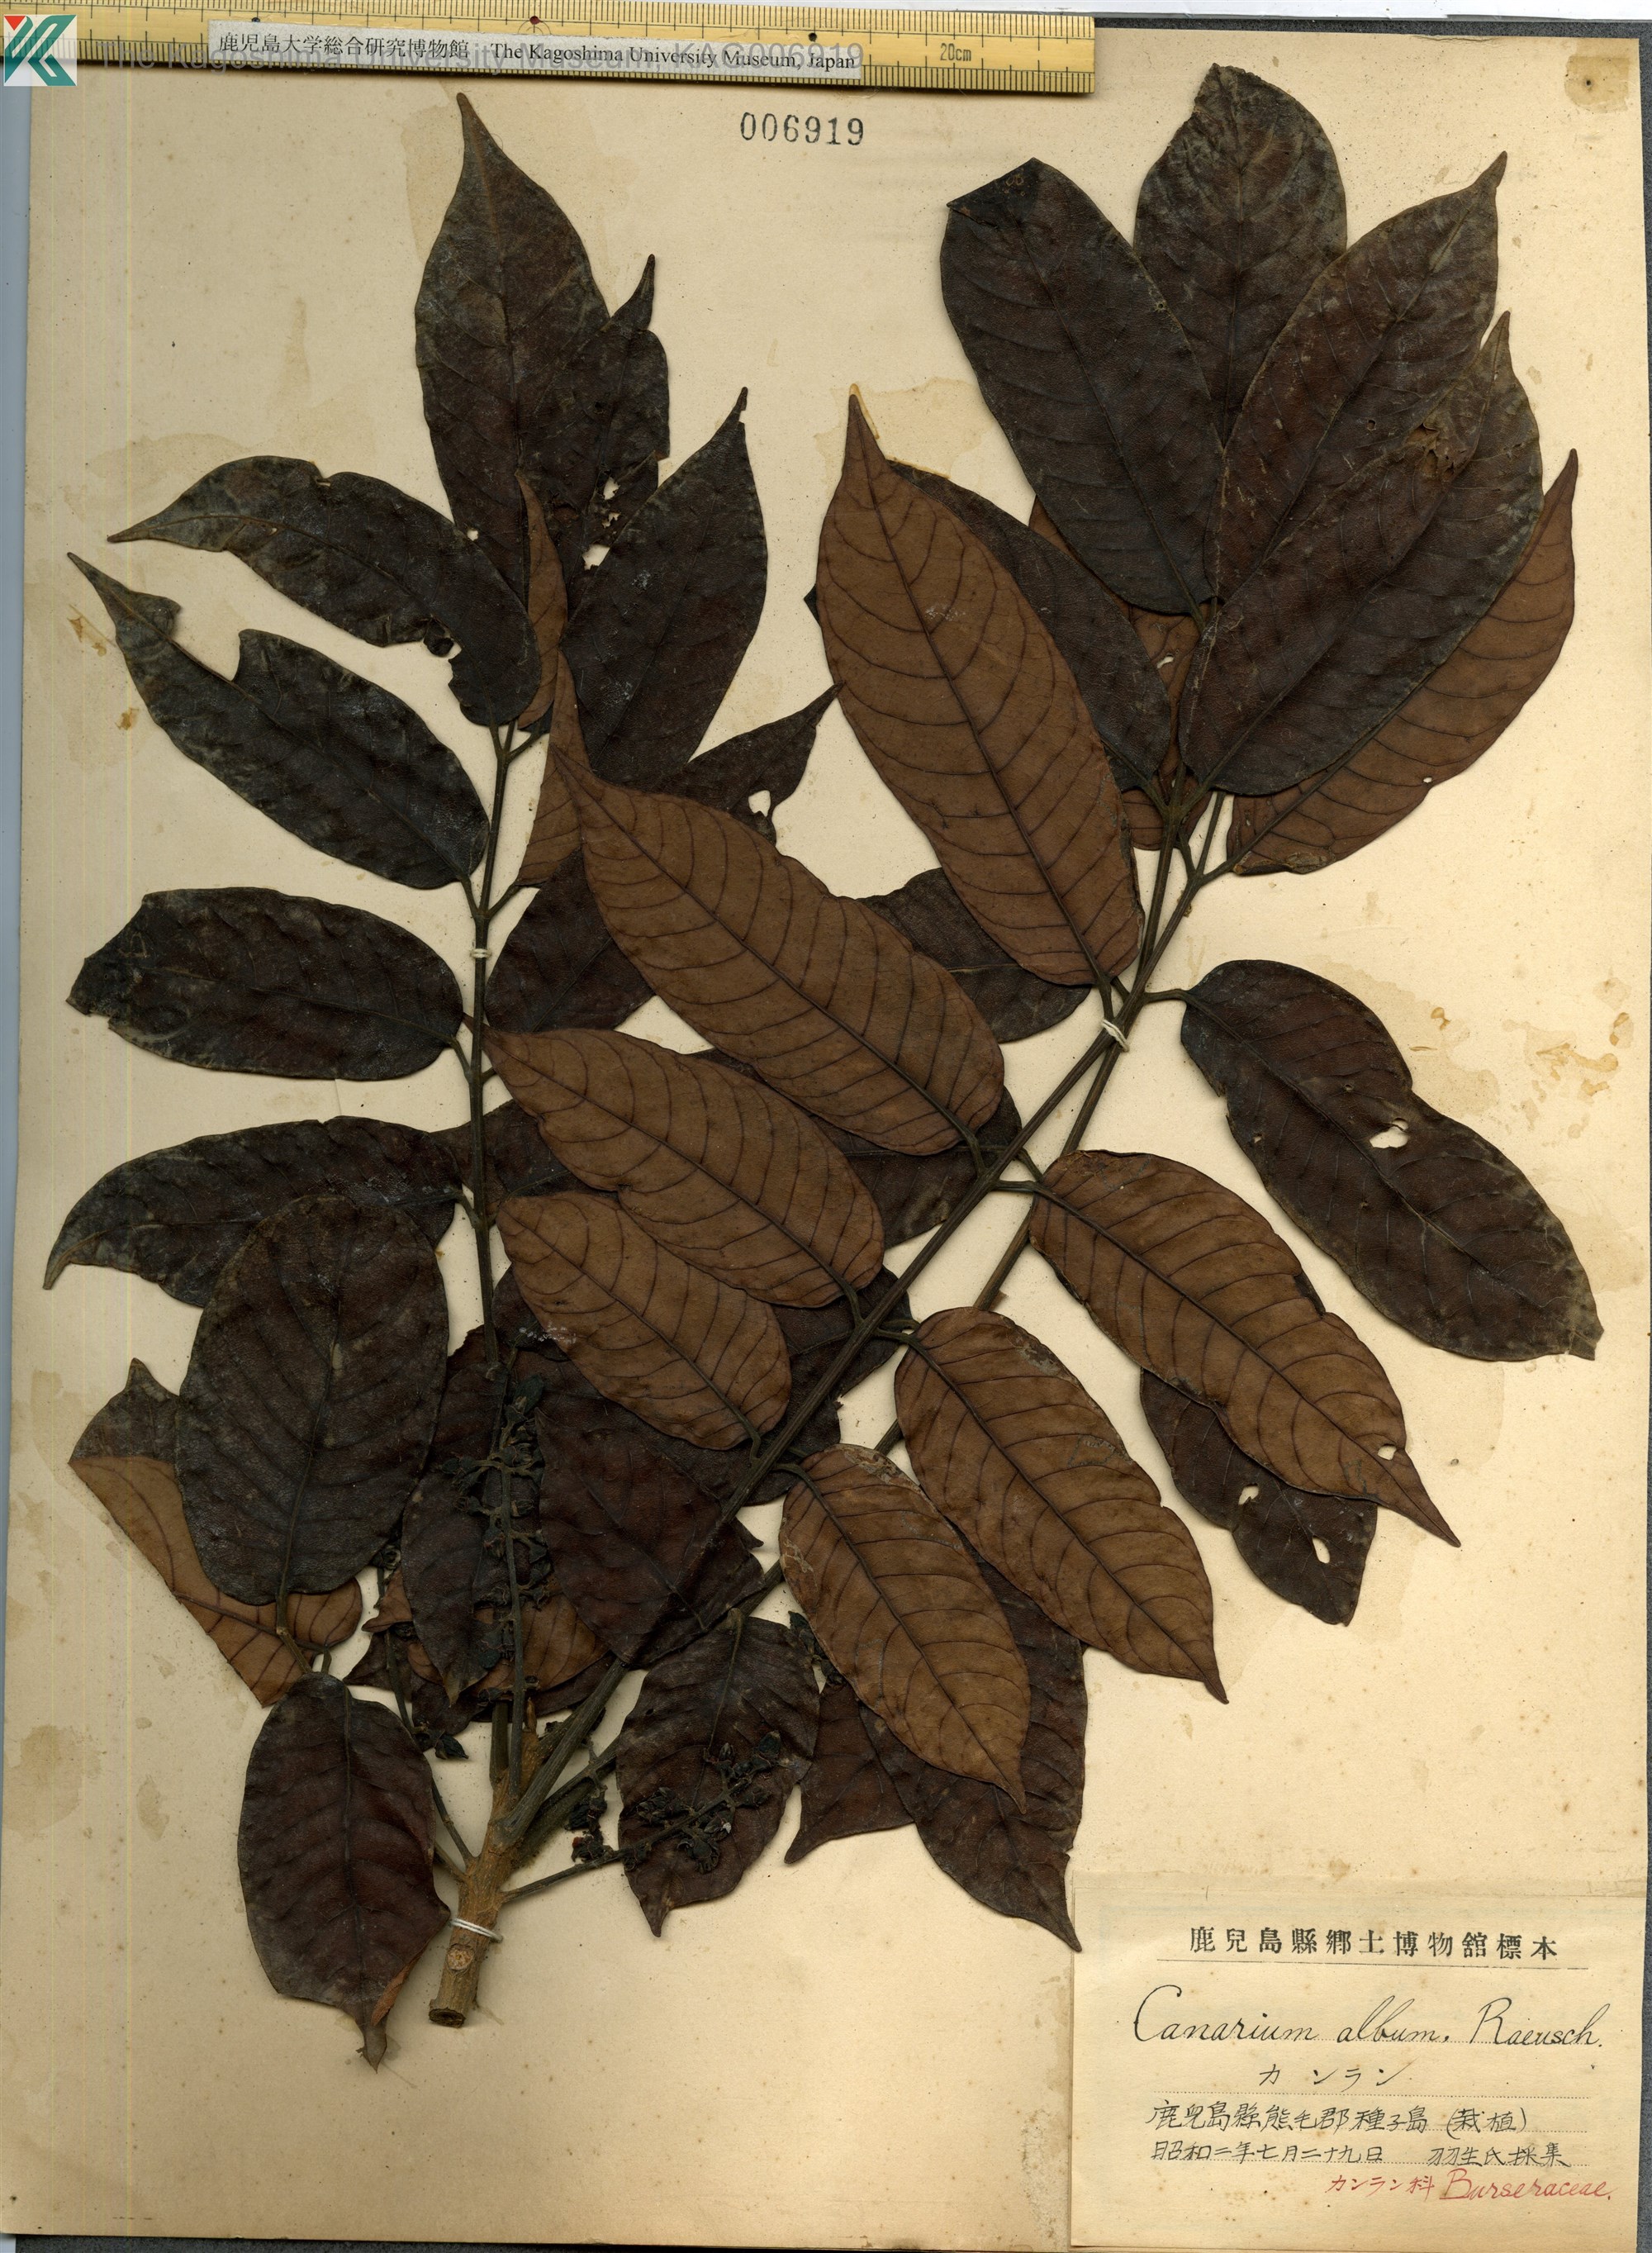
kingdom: Plantae
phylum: Tracheophyta
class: Magnoliopsida
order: Sapindales
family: Burseraceae
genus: Canarium
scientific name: Canarium album
